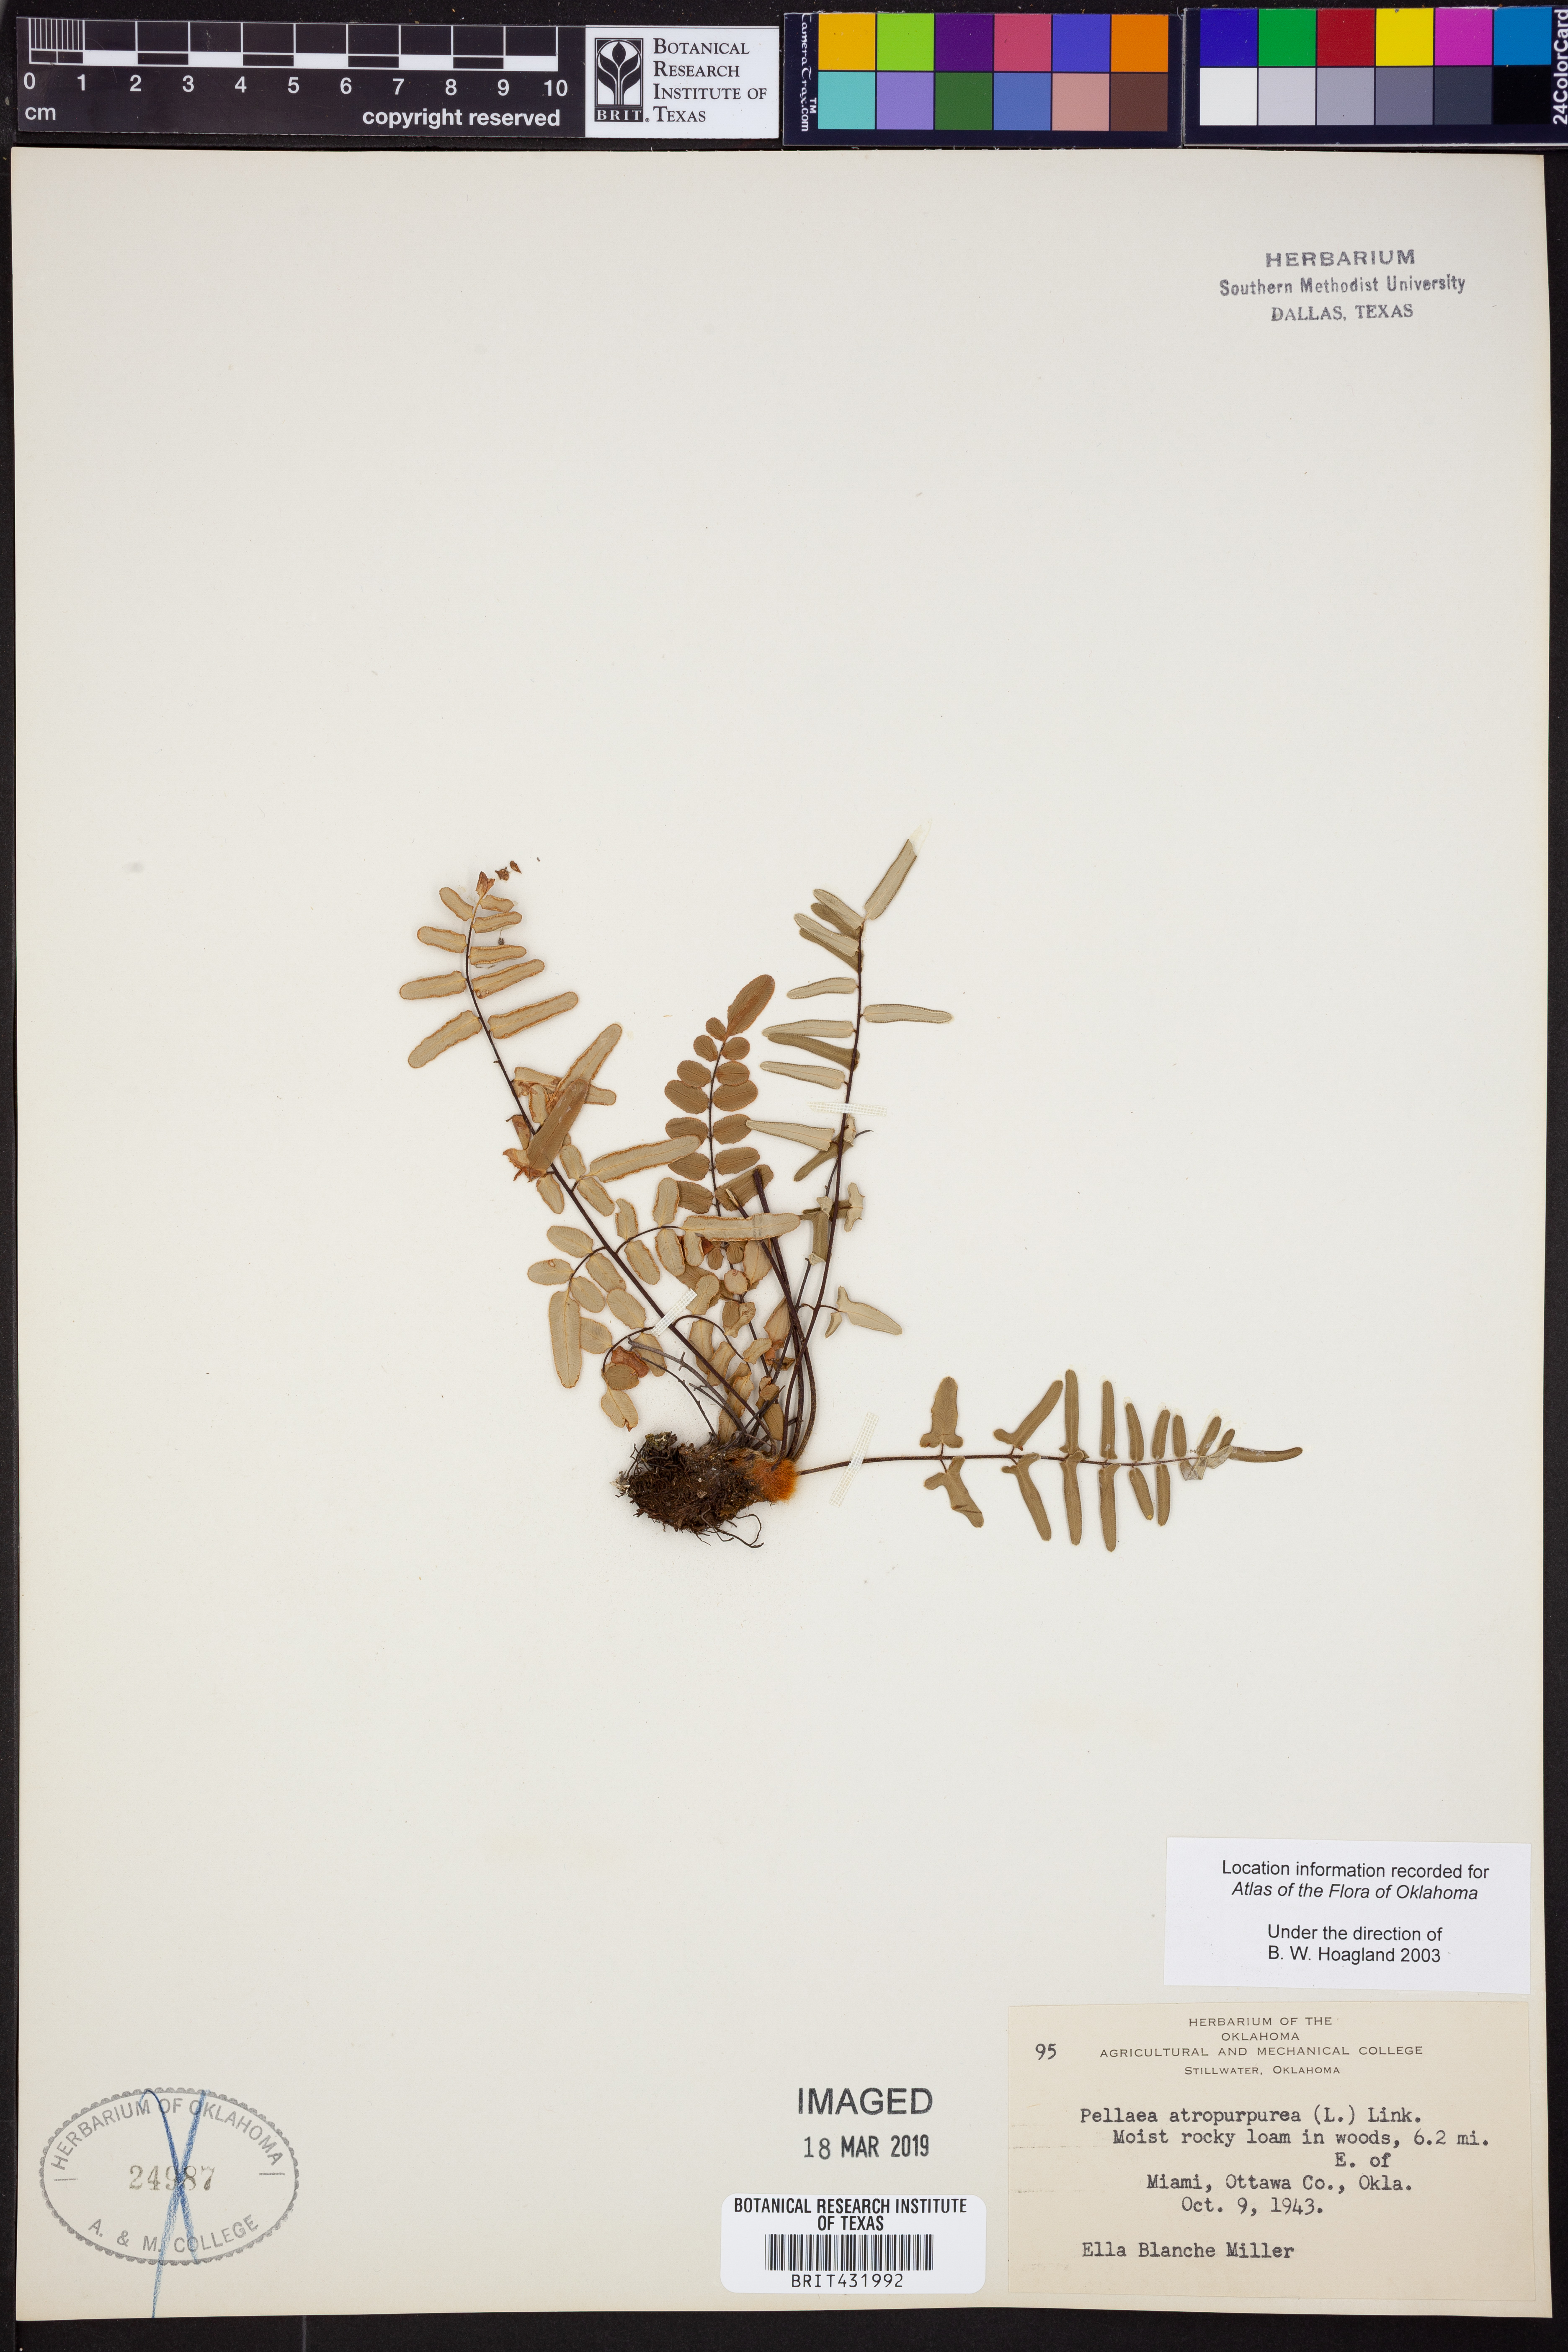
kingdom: Plantae
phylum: Tracheophyta
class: Polypodiopsida
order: Polypodiales
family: Pteridaceae
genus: Pellaea
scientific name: Pellaea atropurpurea
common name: Hairy cliffbrake
